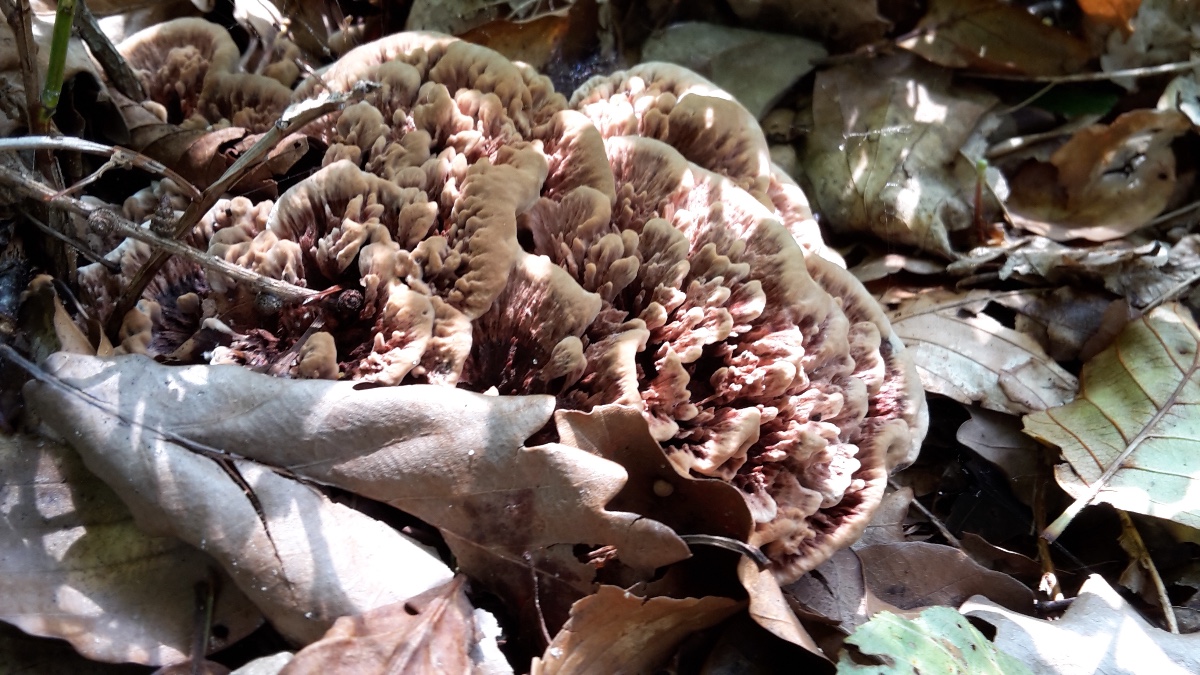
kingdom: Fungi
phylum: Basidiomycota
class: Agaricomycetes
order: Thelephorales
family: Bankeraceae
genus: Hydnellum
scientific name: Hydnellum concrescens
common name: bæltet korkpigsvamp
